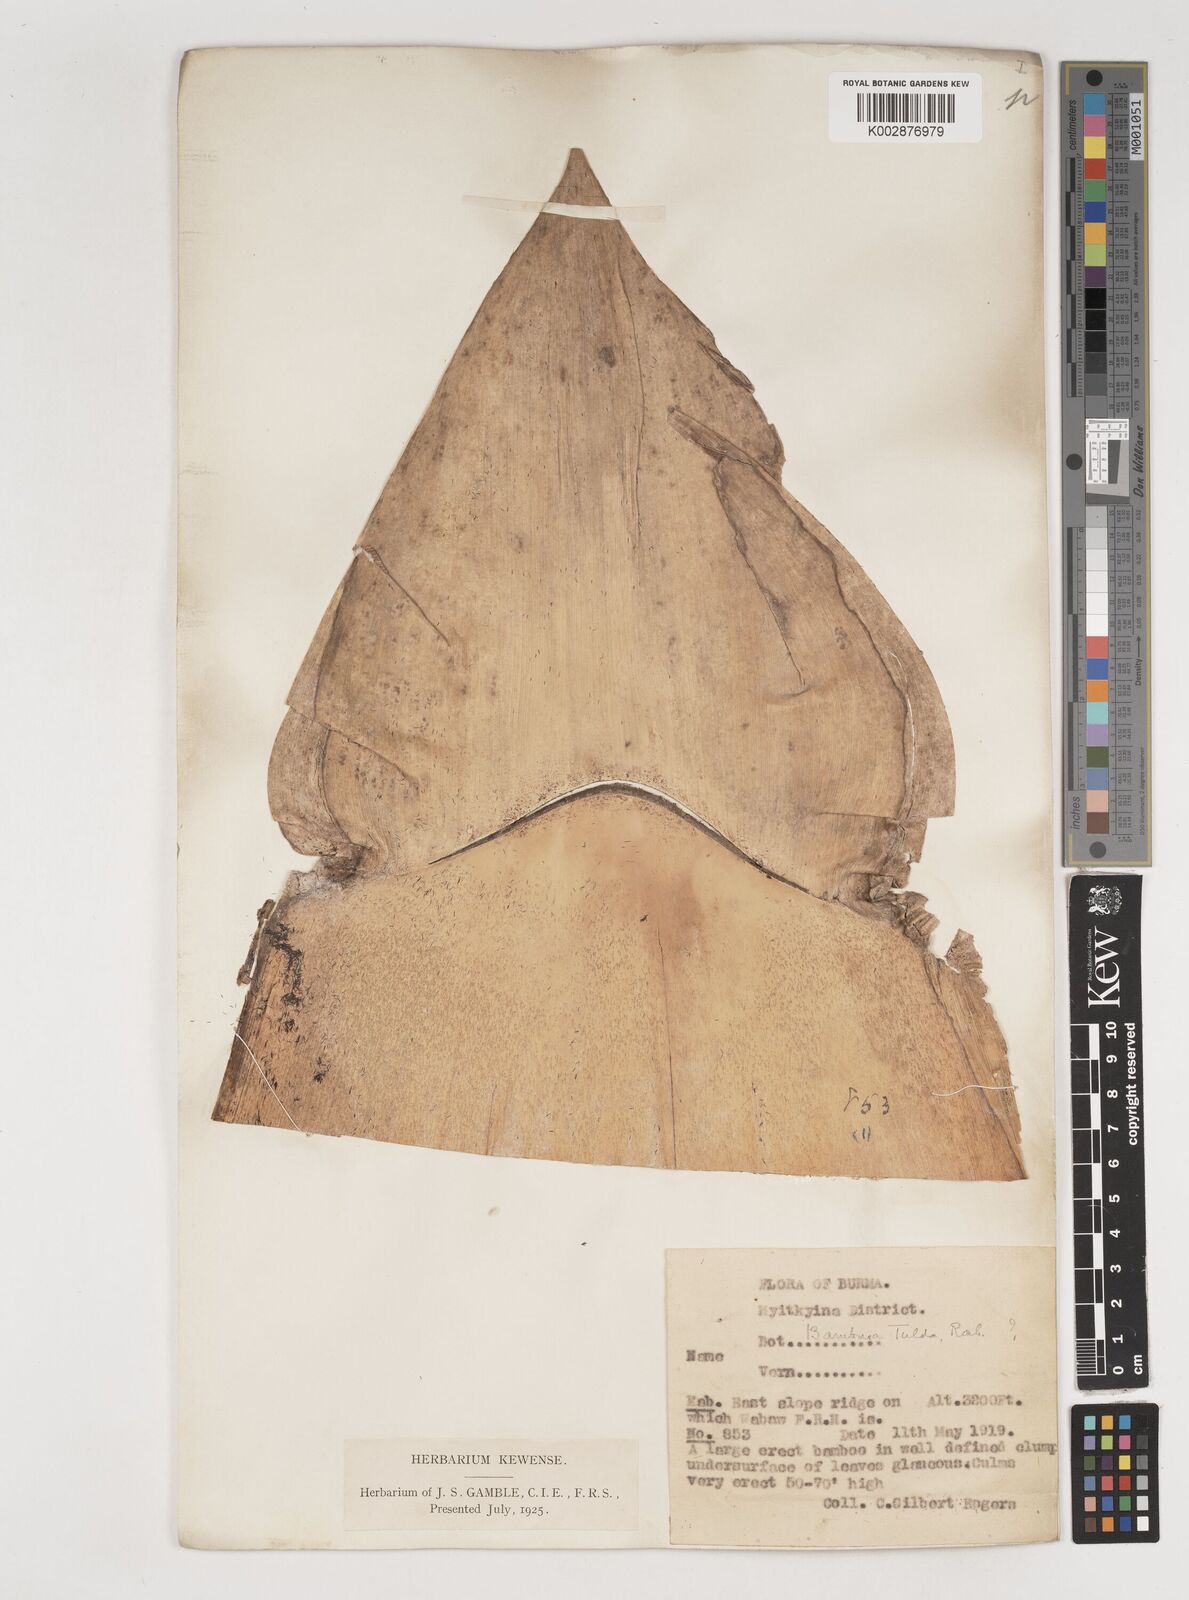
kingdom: Plantae
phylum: Tracheophyta
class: Liliopsida
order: Poales
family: Poaceae
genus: Bambusa
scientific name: Bambusa tulda
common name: Bengal bamboo
